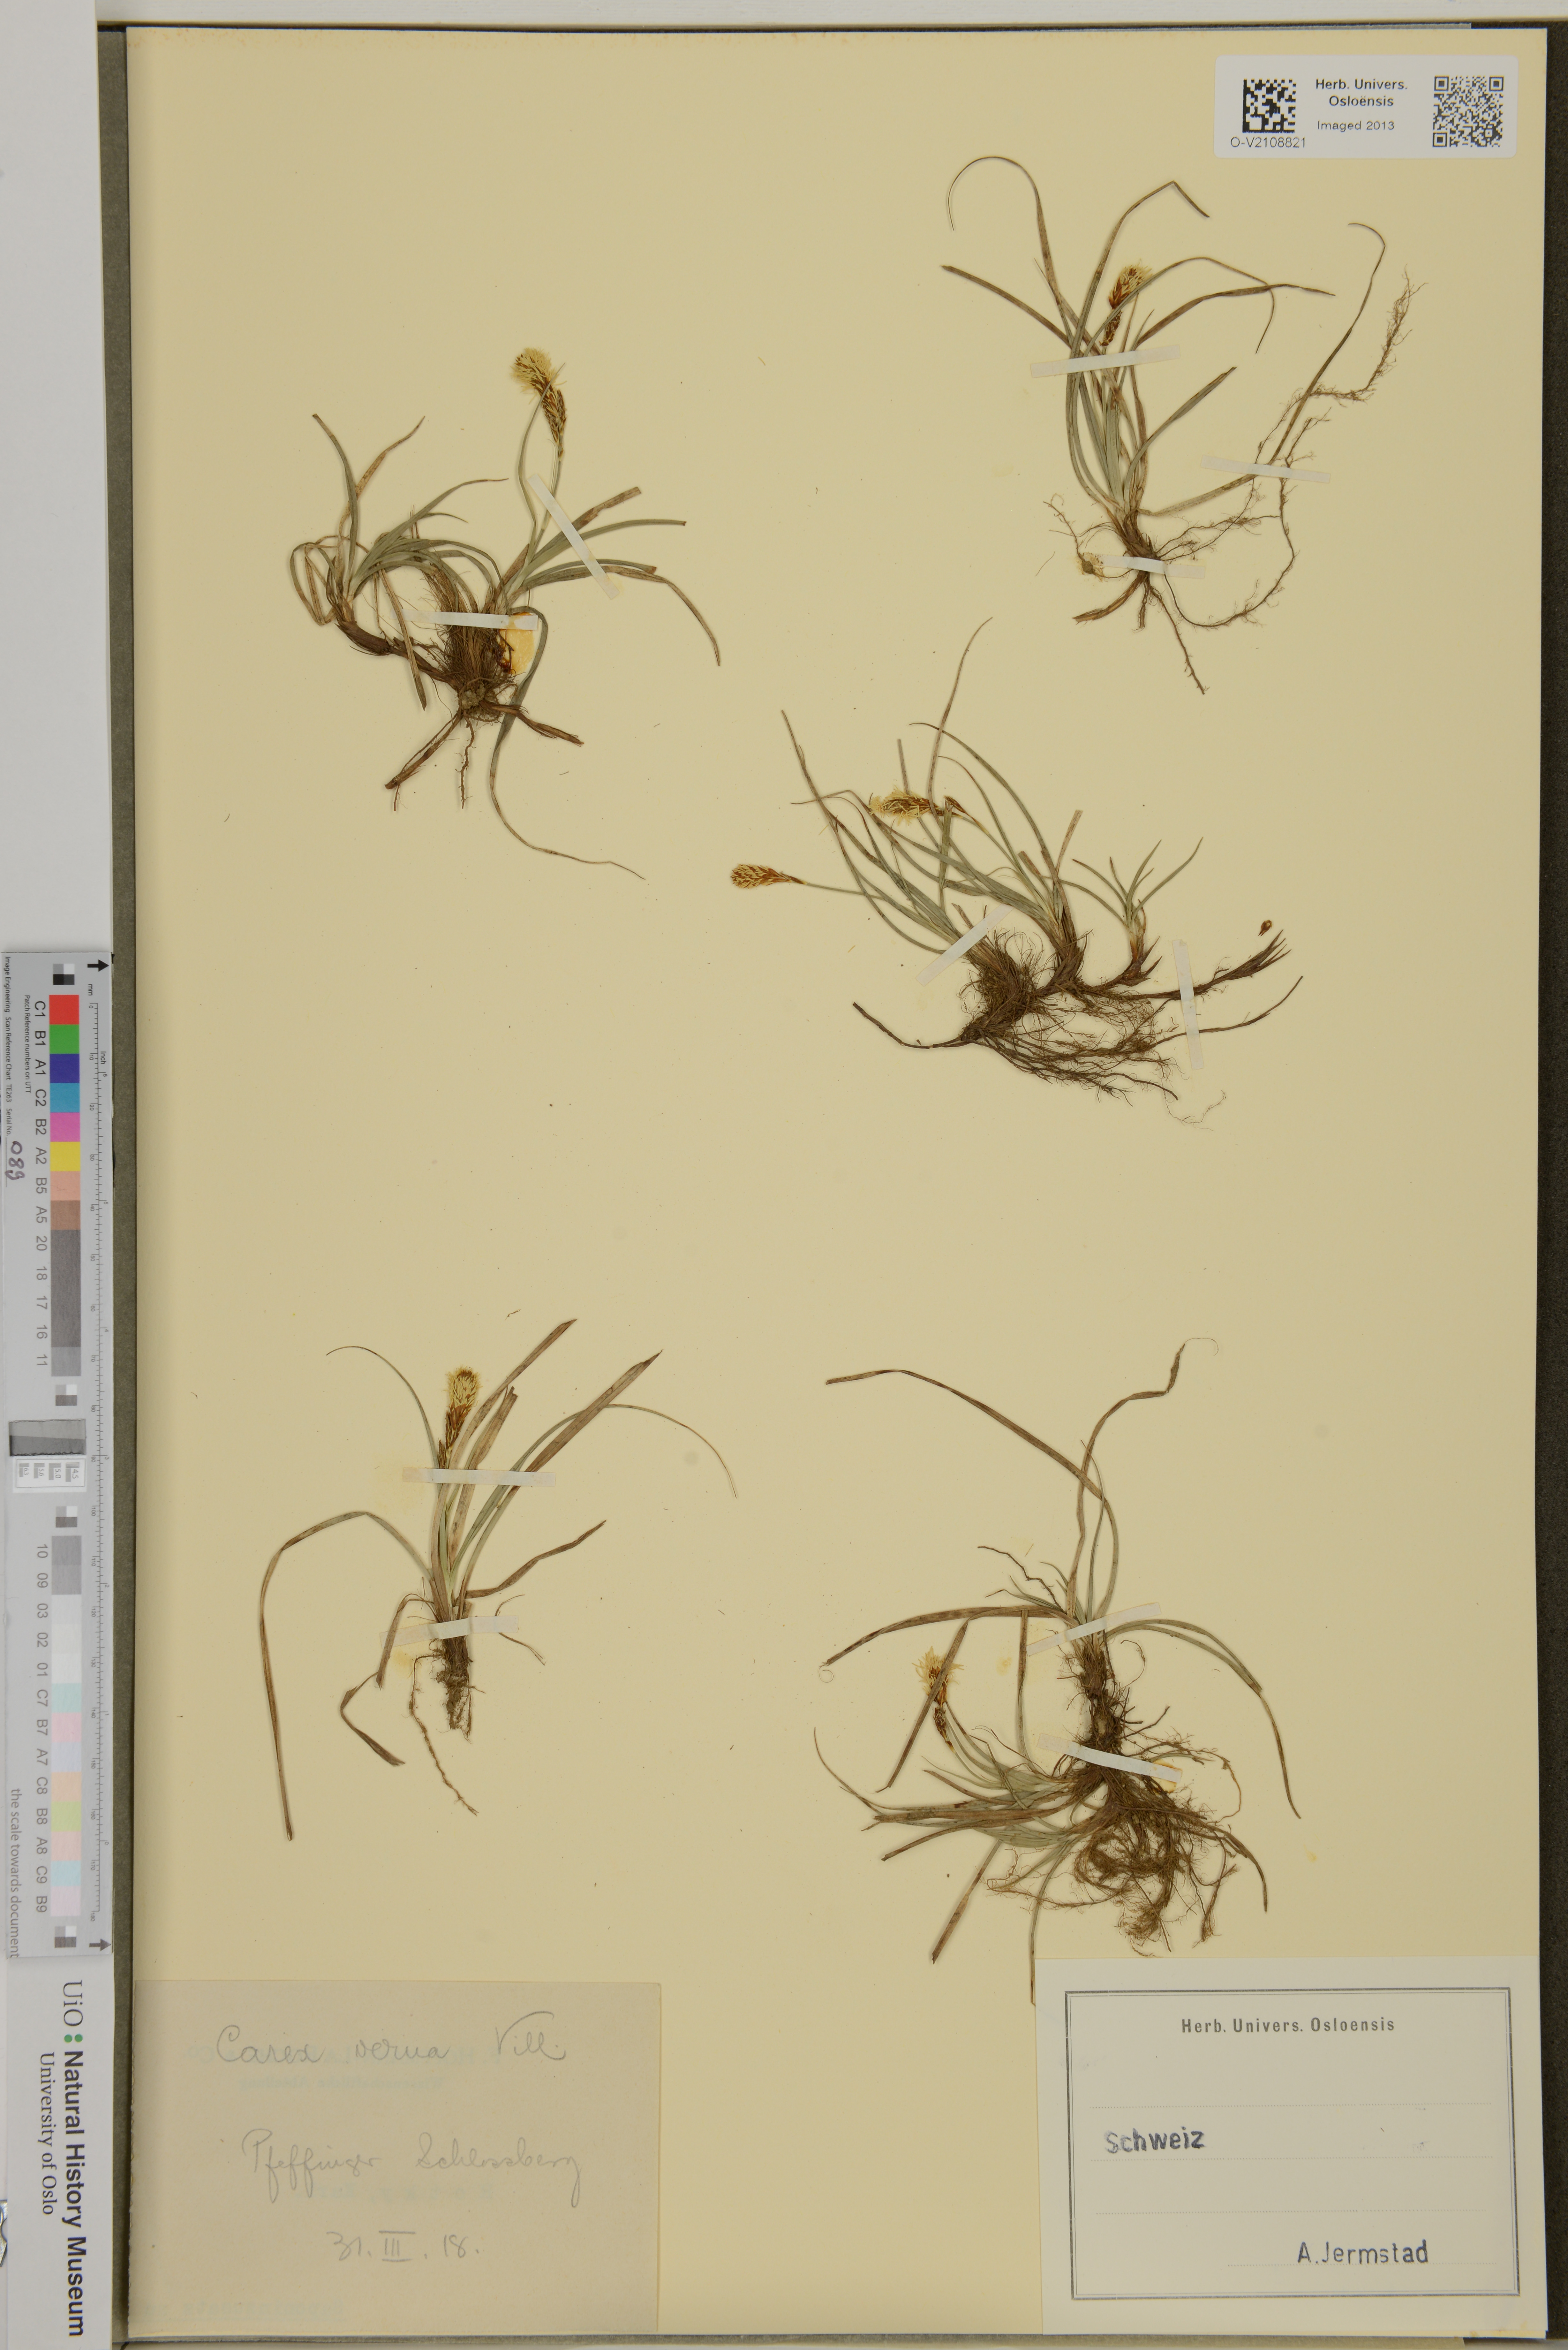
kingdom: Plantae
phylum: Tracheophyta
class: Liliopsida
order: Poales
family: Cyperaceae
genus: Carex
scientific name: Carex caryophyllea
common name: Spring sedge
